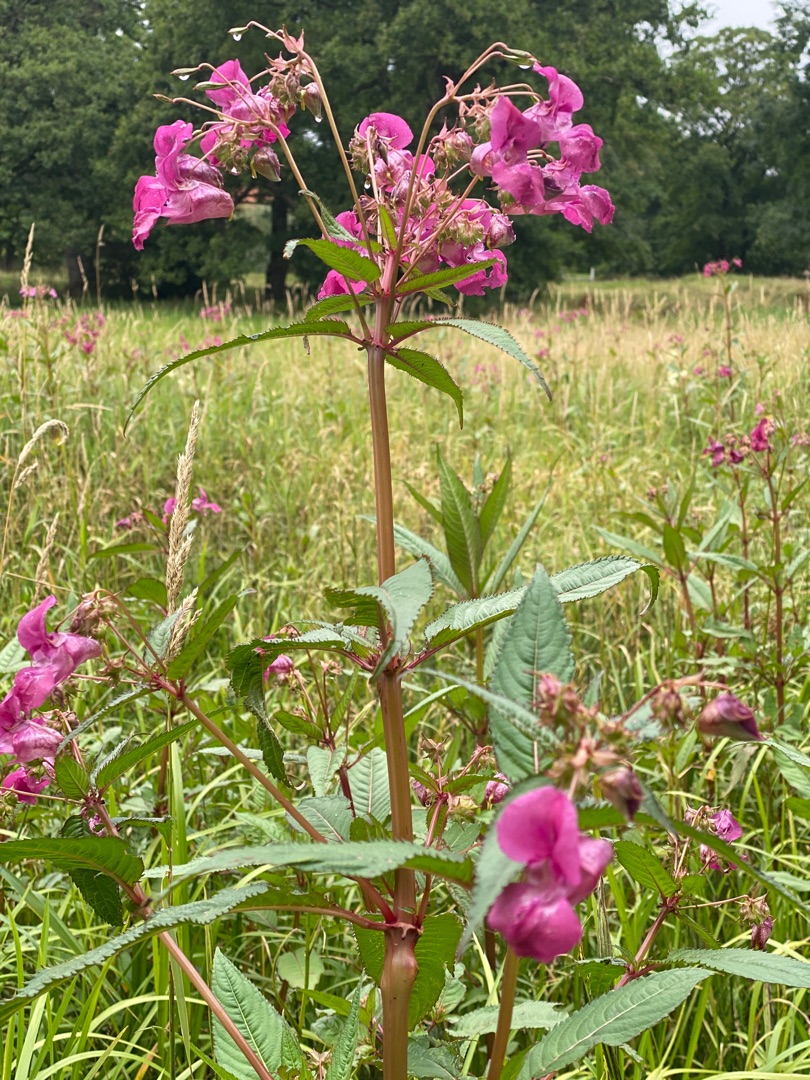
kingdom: Plantae
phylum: Tracheophyta
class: Magnoliopsida
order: Ericales
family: Balsaminaceae
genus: Impatiens
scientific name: Impatiens glandulifera
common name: Kæmpe-balsamin
